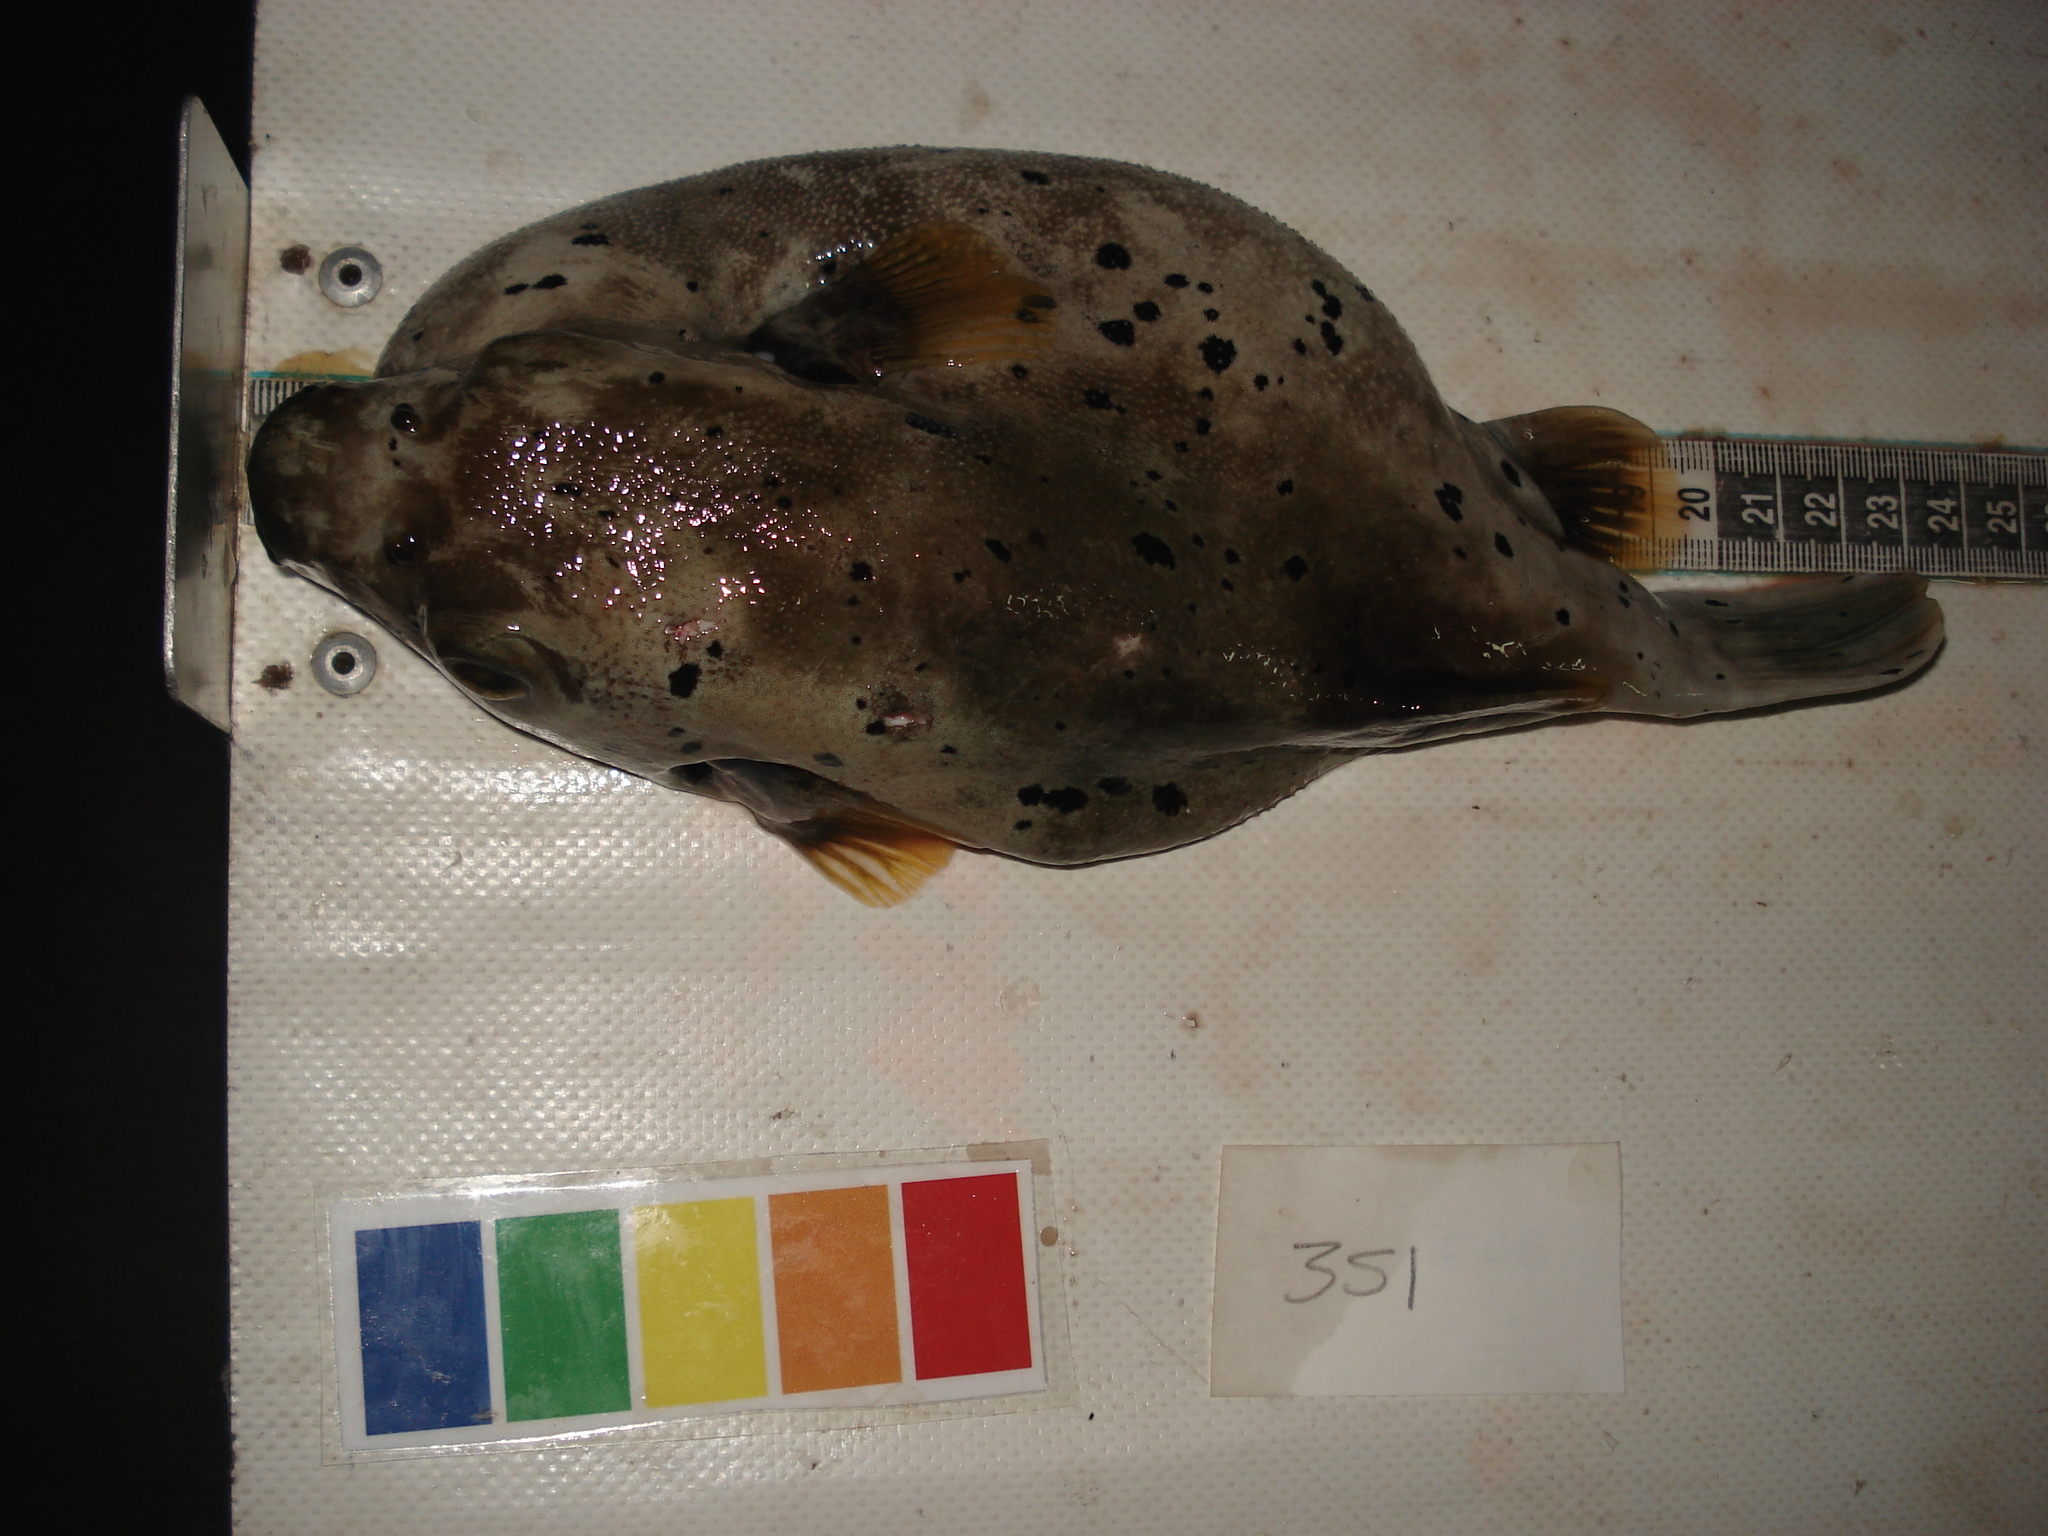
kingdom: Animalia
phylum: Chordata
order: Tetraodontiformes
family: Tetraodontidae
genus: Arothron
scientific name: Arothron nigropunctatus
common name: Black spotted blow fish
